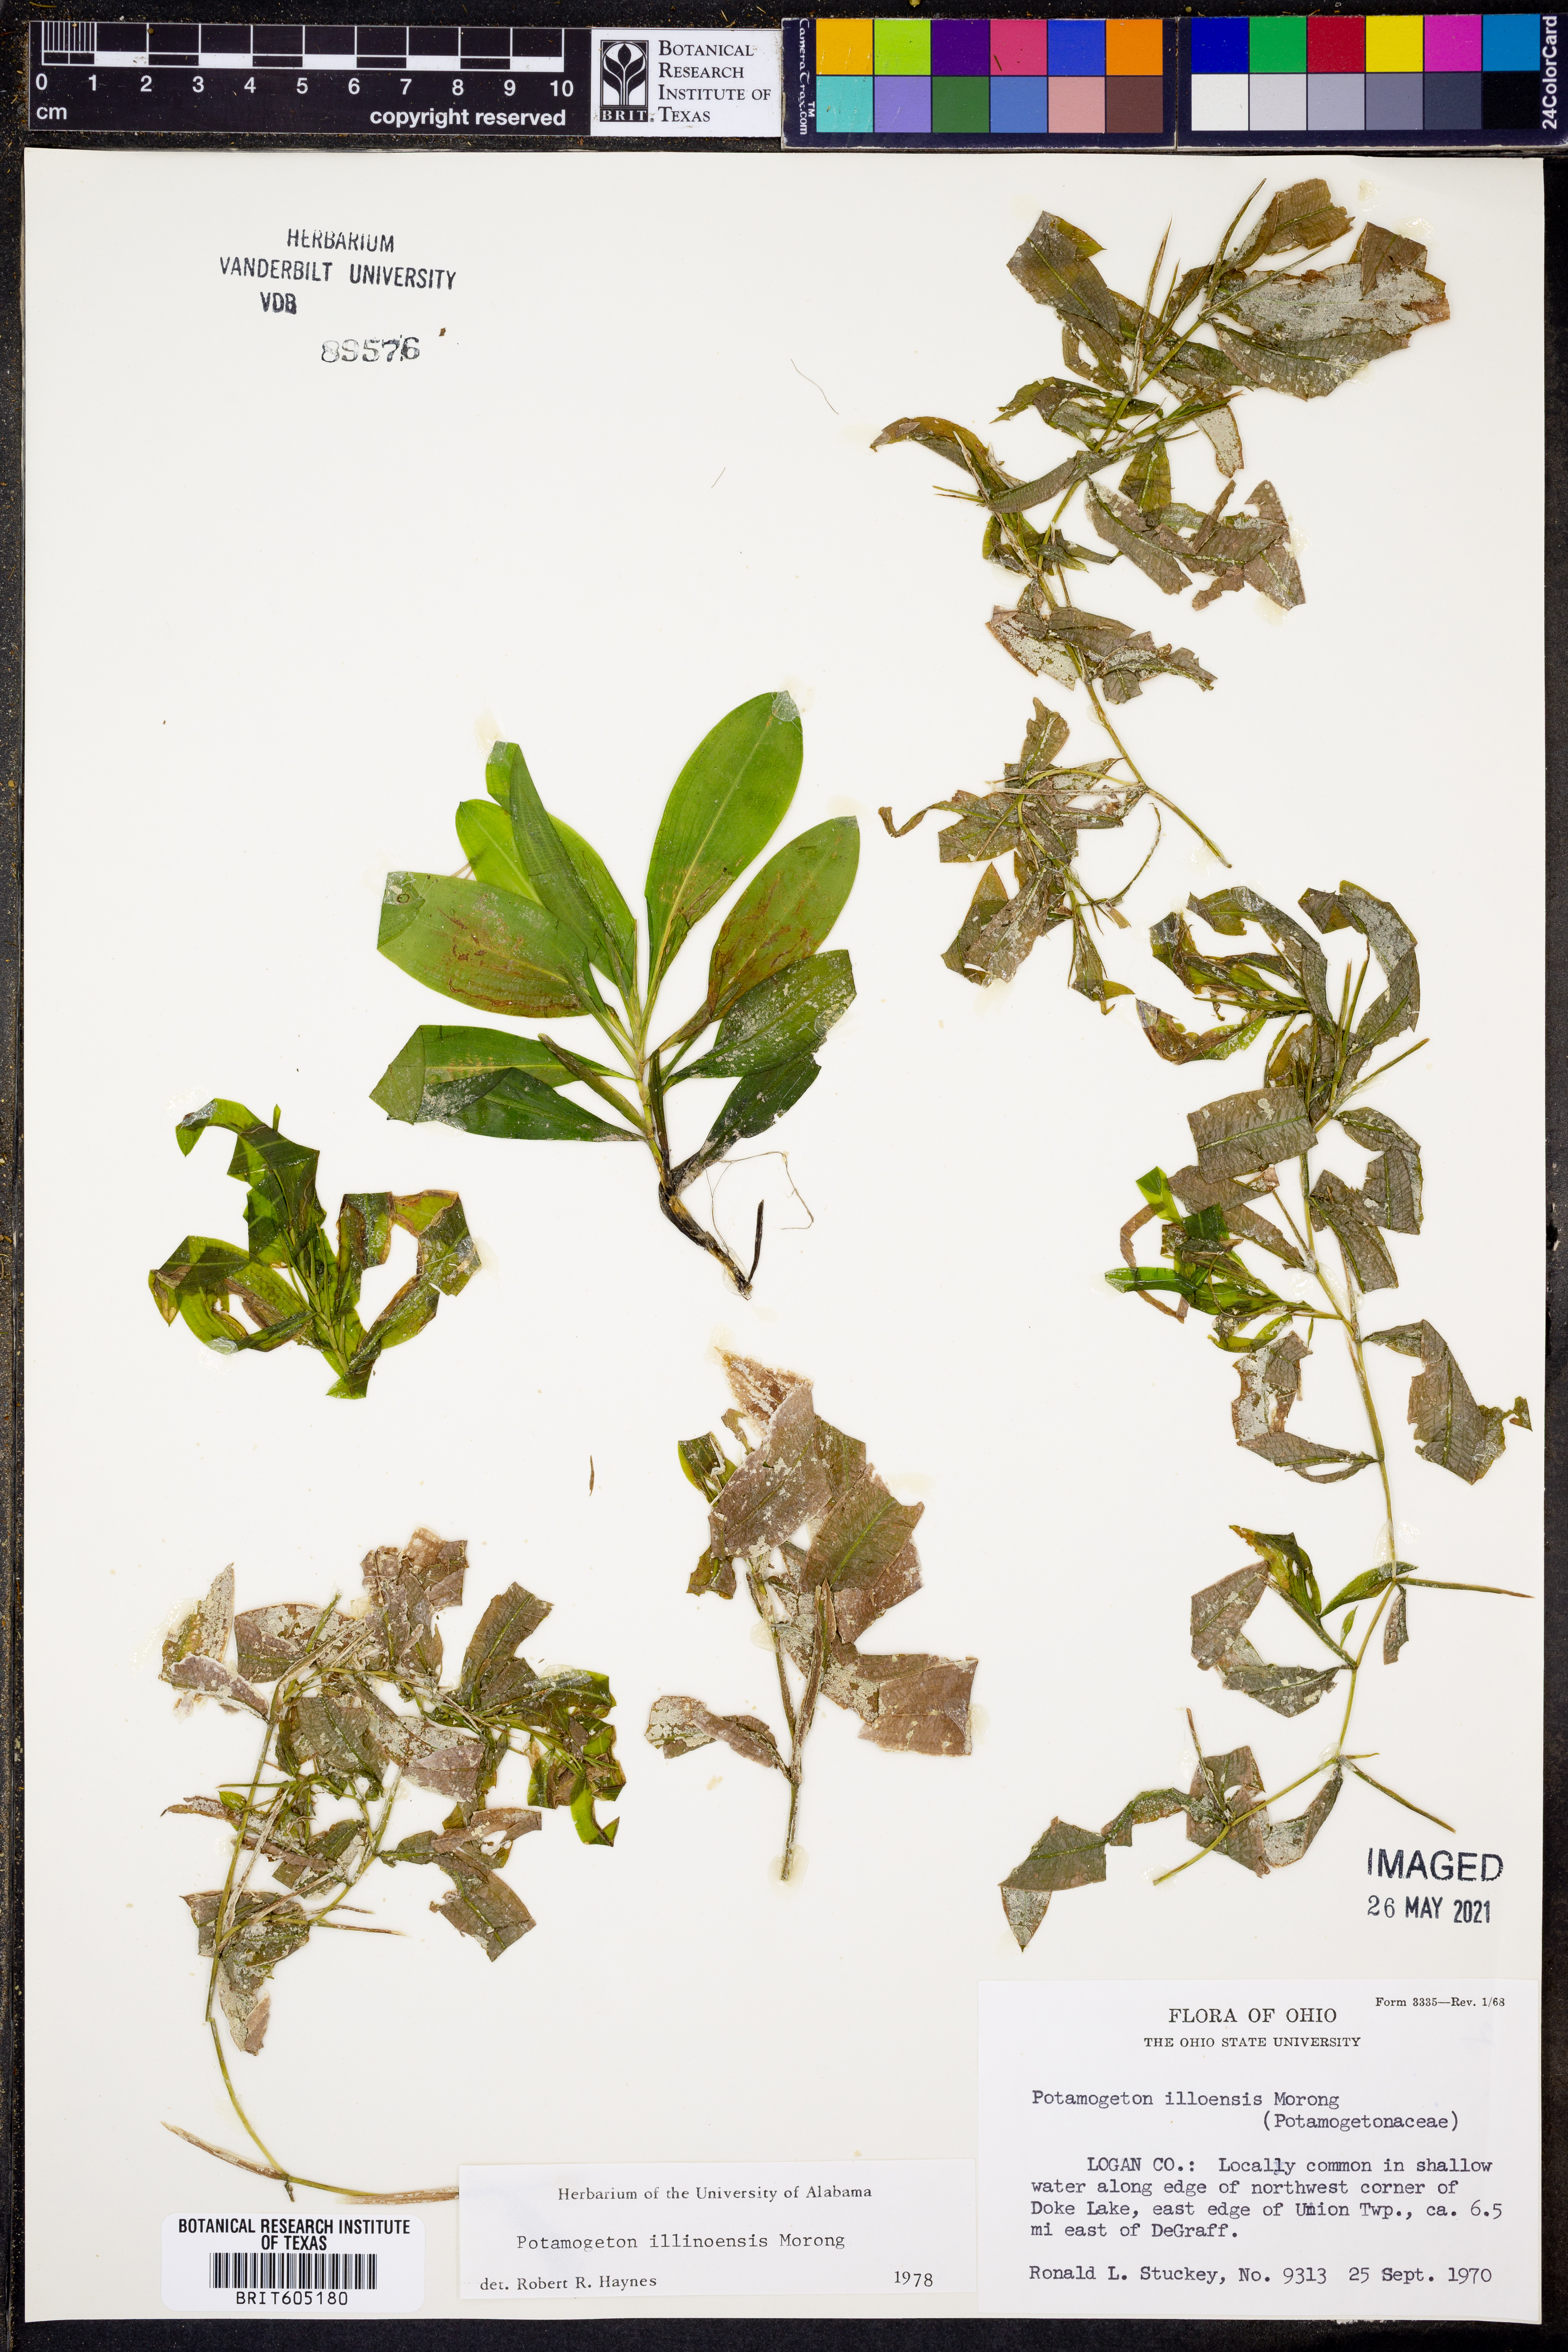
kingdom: Plantae
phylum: Tracheophyta
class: Liliopsida
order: Alismatales
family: Potamogetonaceae
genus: Potamogeton
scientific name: Potamogeton illinoensis
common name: Illinois pondweed
